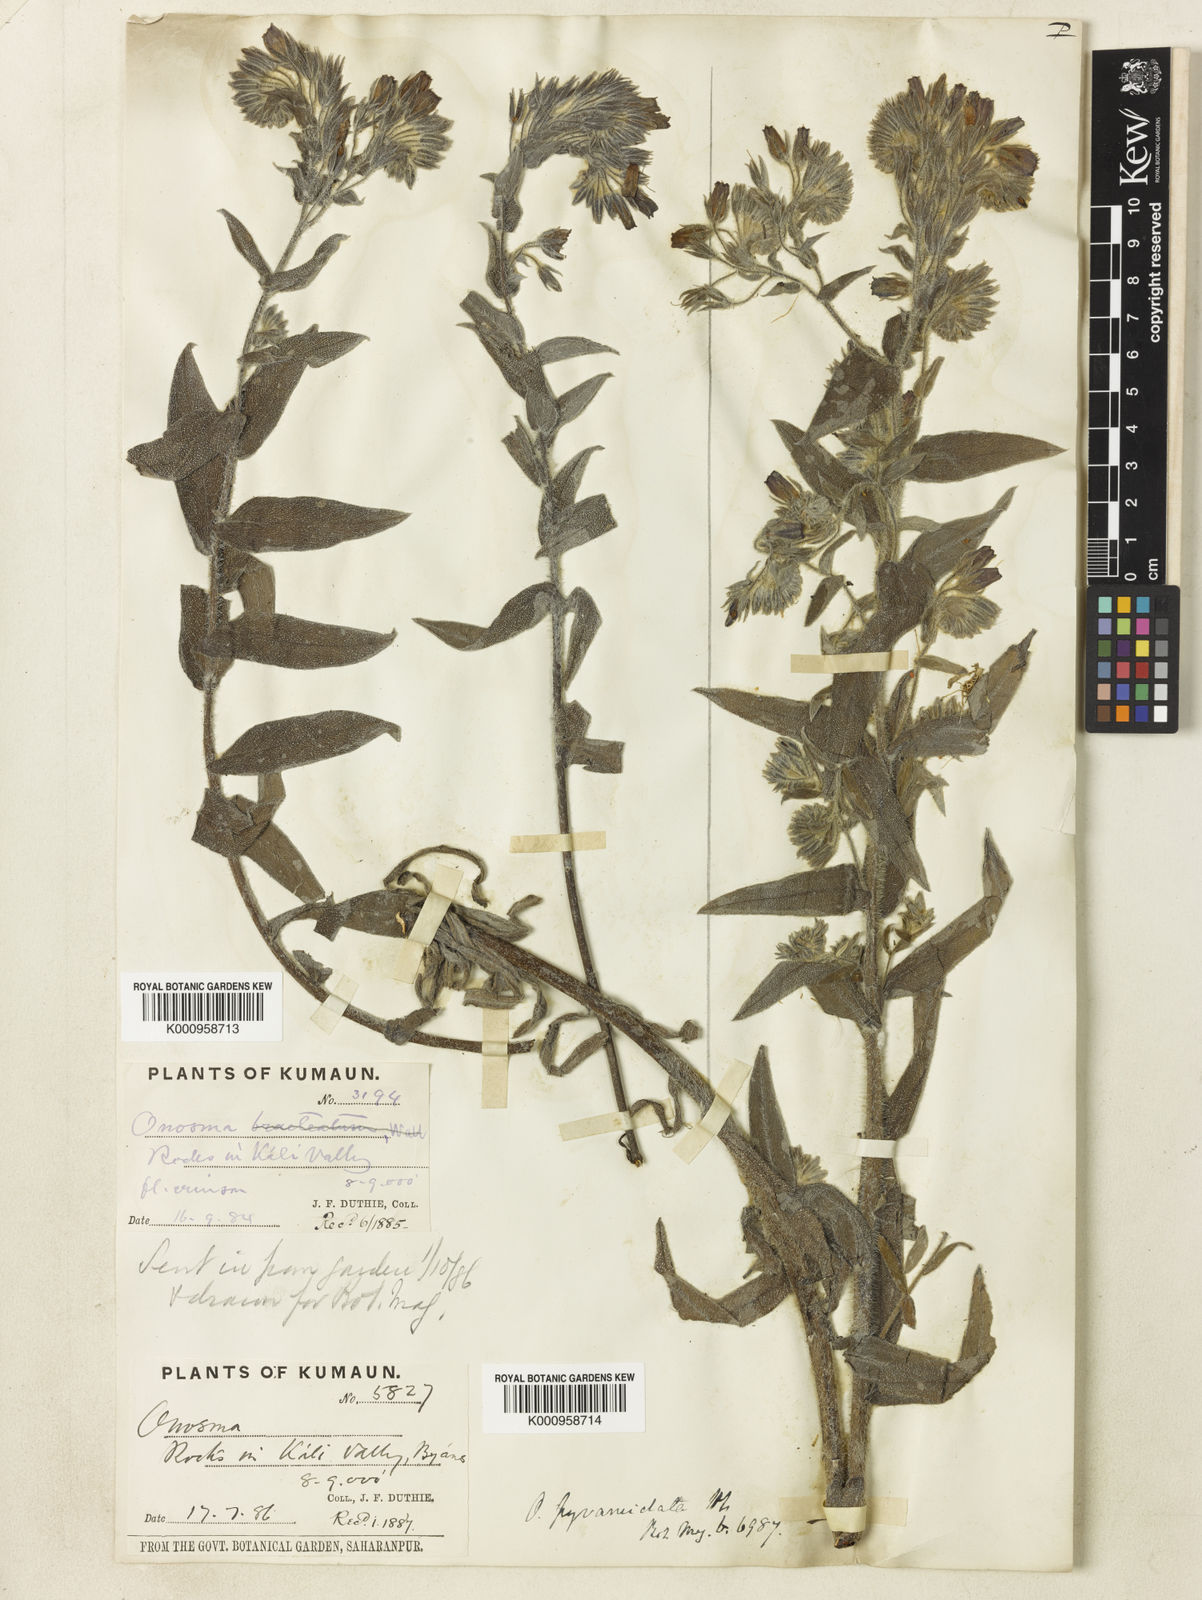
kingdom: Plantae
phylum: Tracheophyta
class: Magnoliopsida
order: Boraginales
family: Boraginaceae
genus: Maharanga
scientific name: Maharanga pyramidalis
